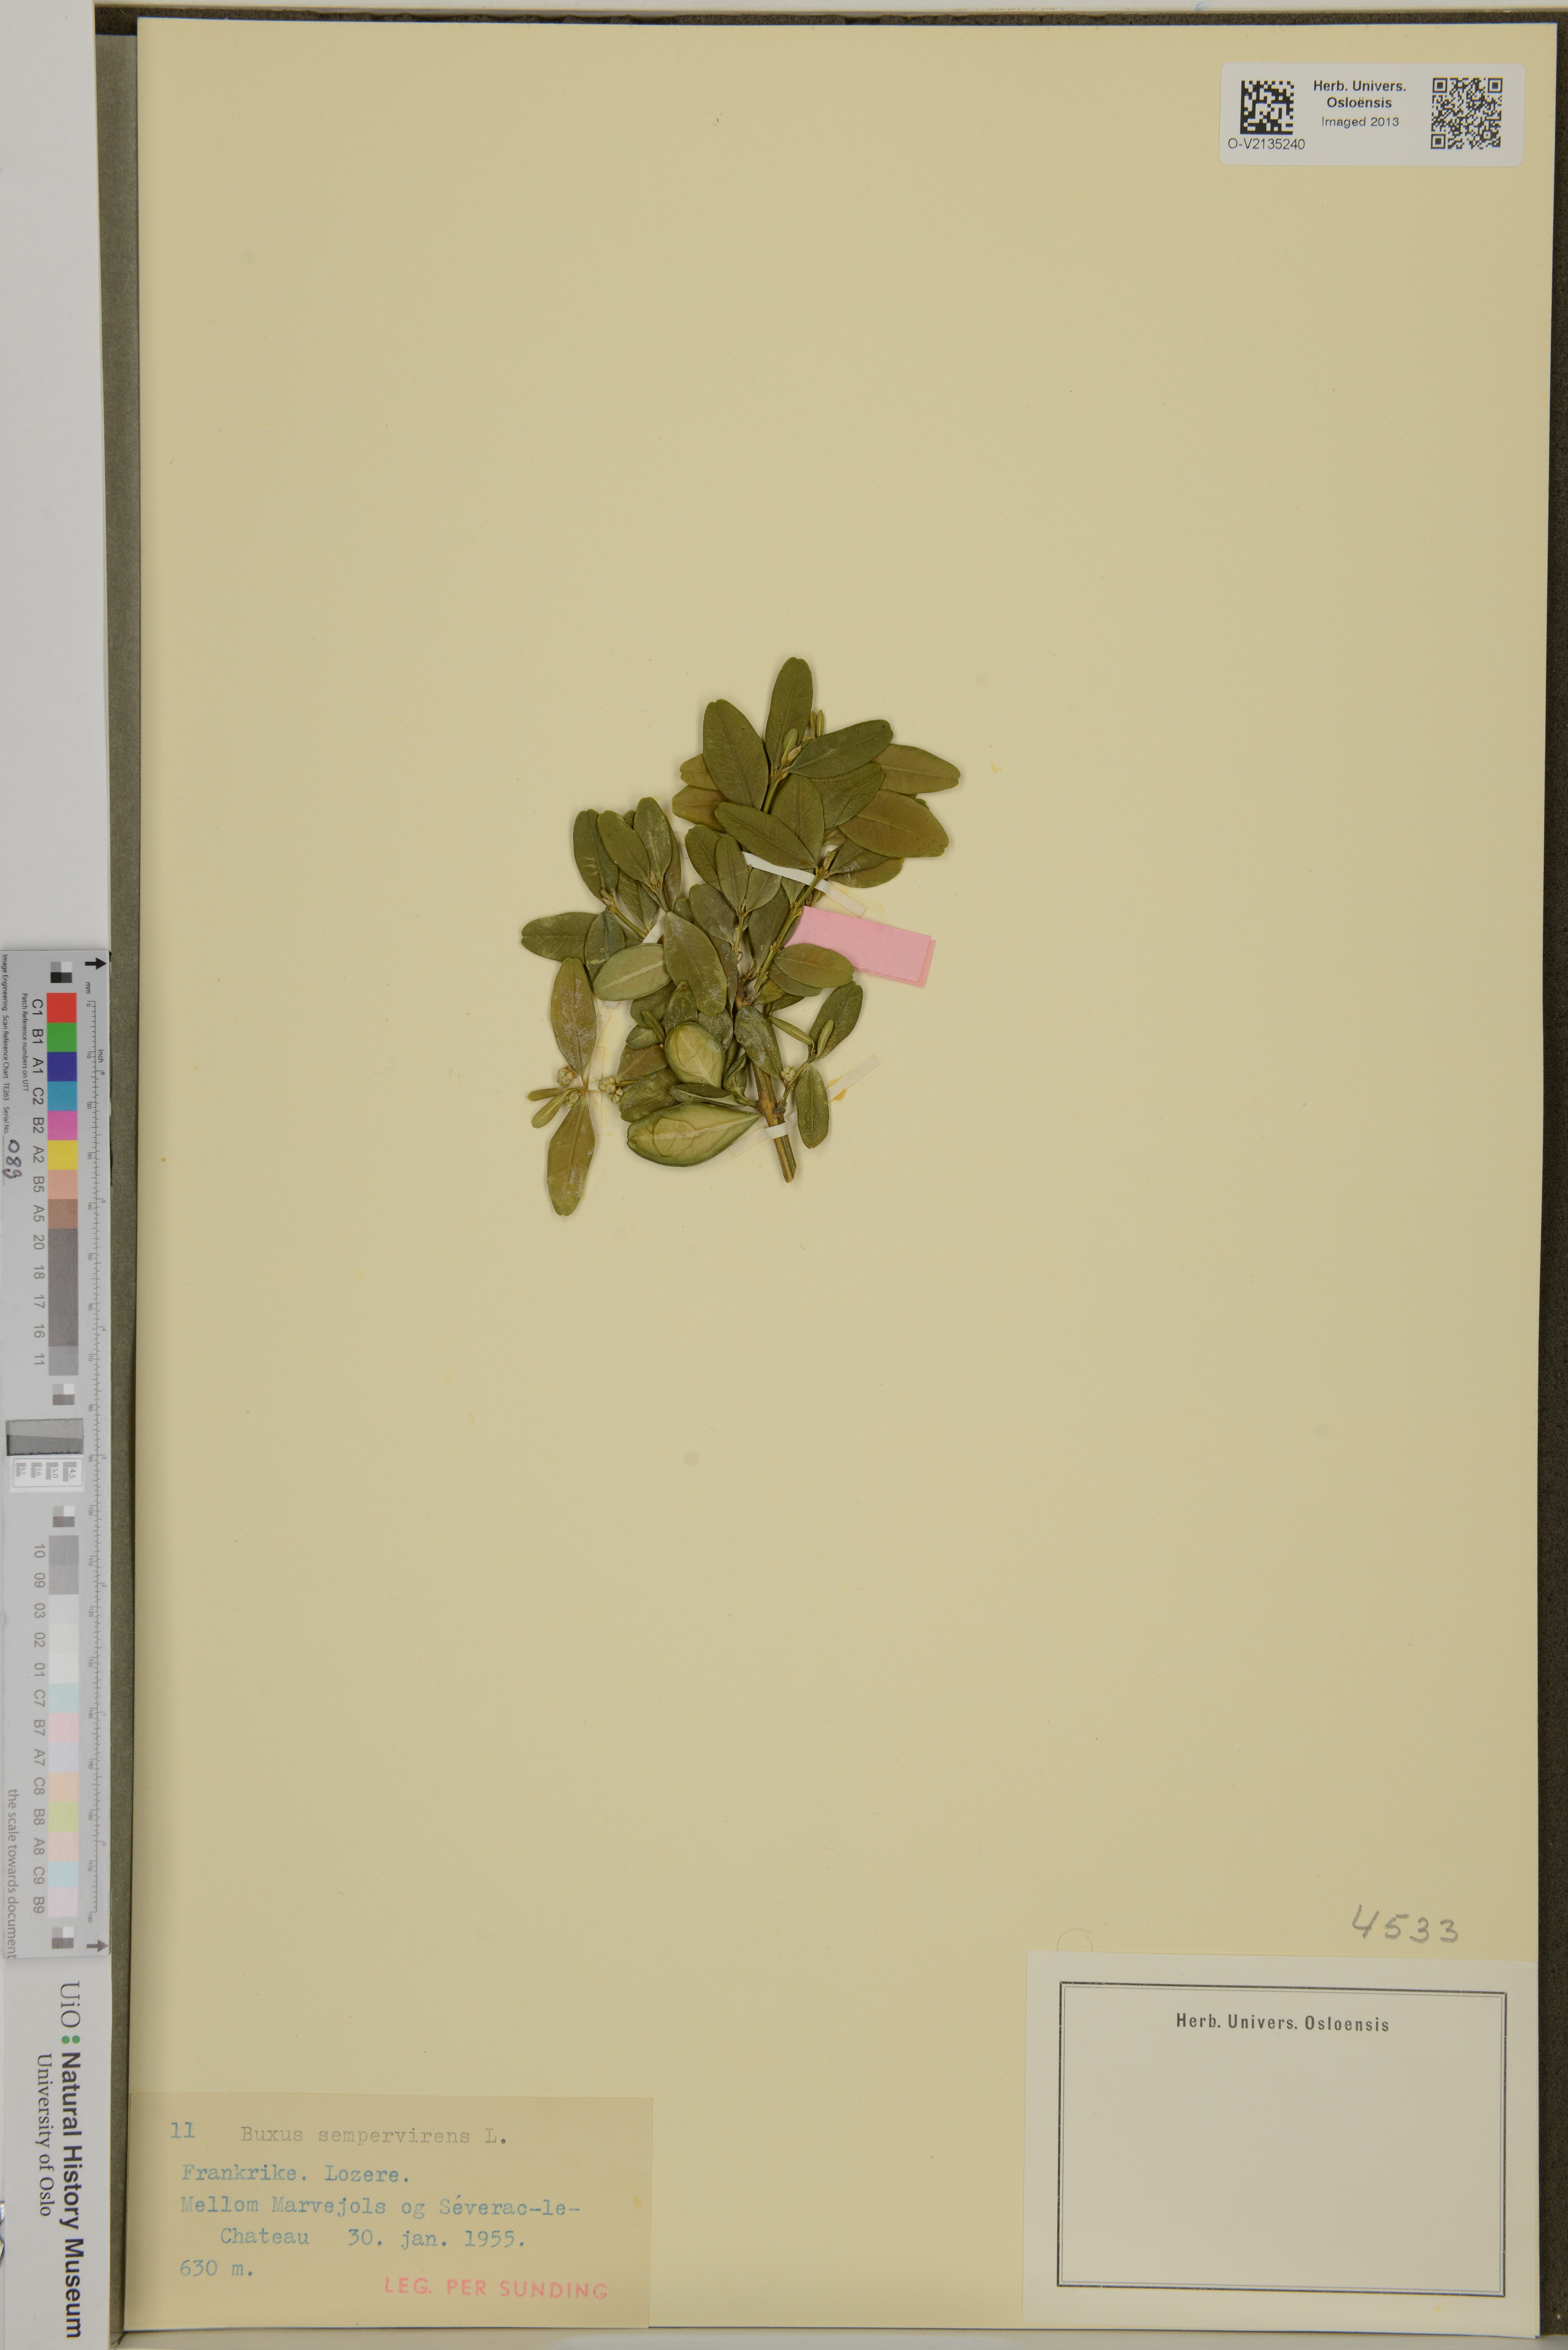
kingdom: Plantae
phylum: Tracheophyta
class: Magnoliopsida
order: Buxales
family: Buxaceae
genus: Buxus
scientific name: Buxus sempervirens
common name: Box
